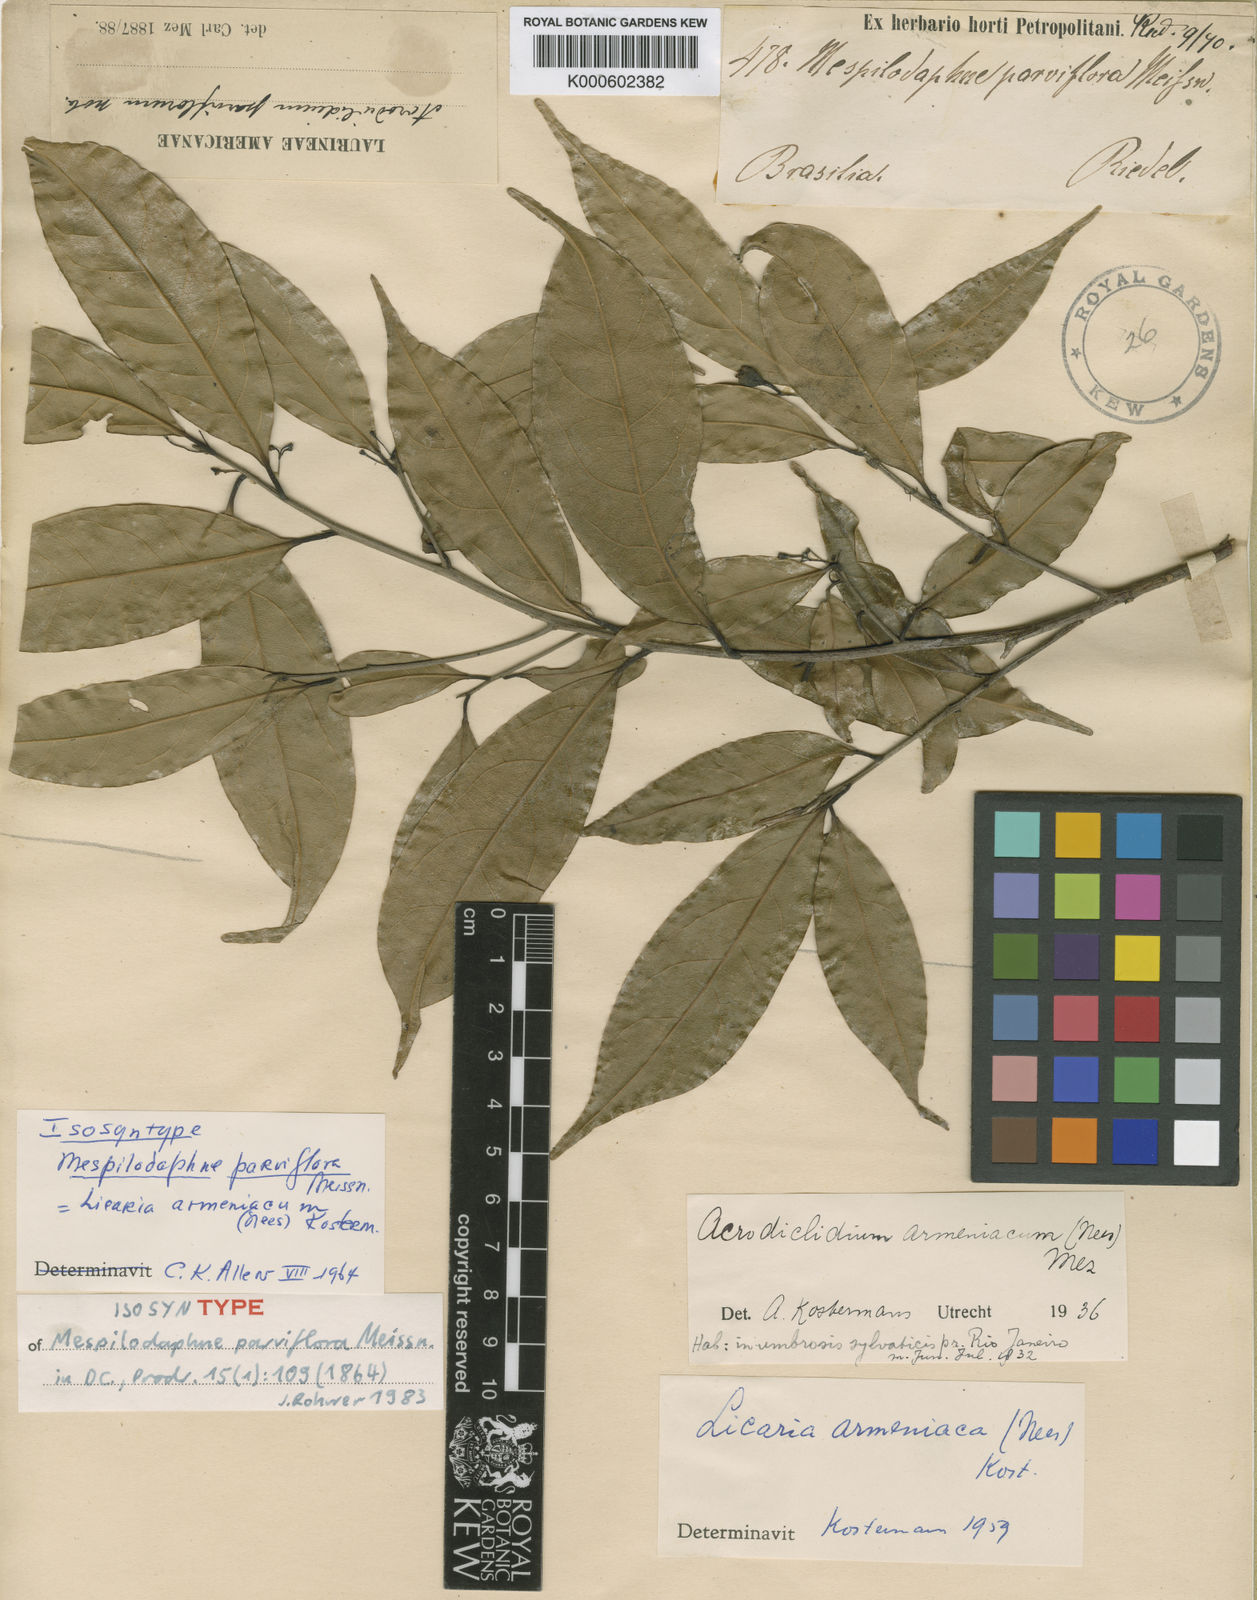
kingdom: Plantae
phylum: Tracheophyta
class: Magnoliopsida
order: Laurales
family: Lauraceae
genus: Pleurothyrium
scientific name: Pleurothyrium parviflorum
